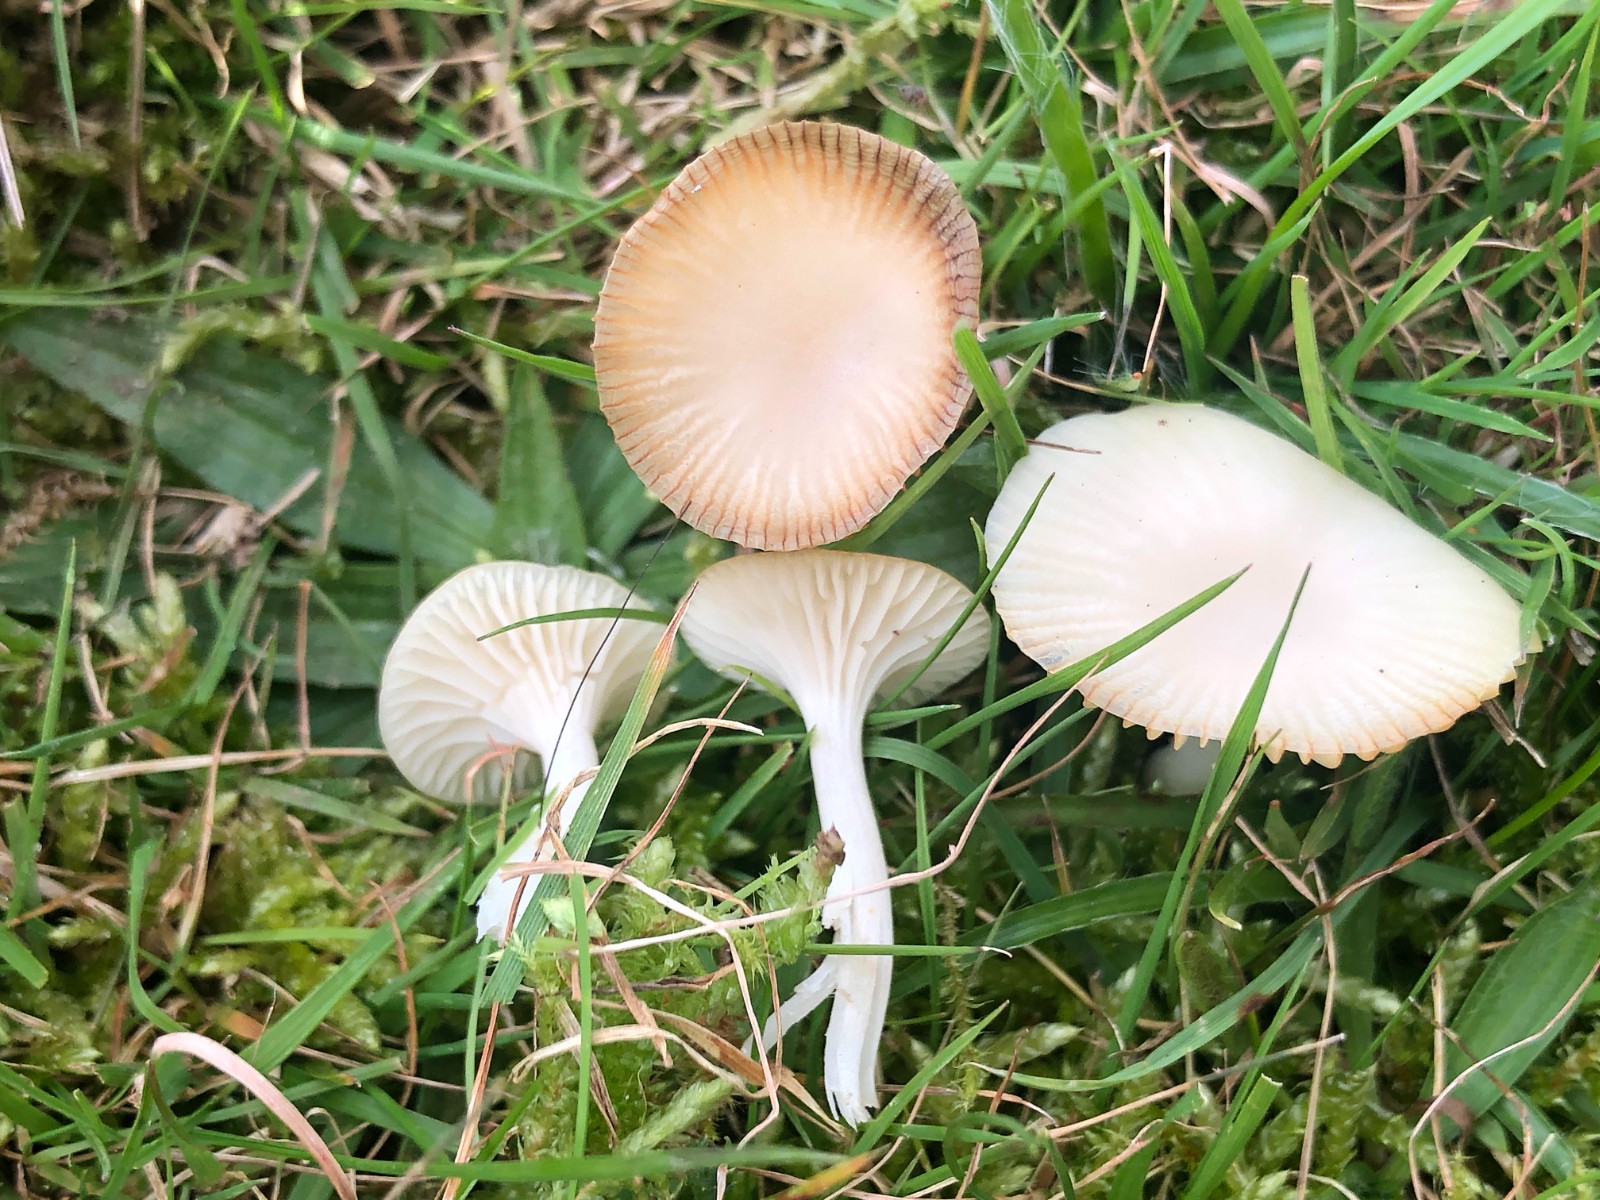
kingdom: Fungi
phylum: Basidiomycota
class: Agaricomycetes
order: Agaricales
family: Hygrophoraceae
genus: Cuphophyllus
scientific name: Cuphophyllus virgineus
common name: snehvid vokshat
